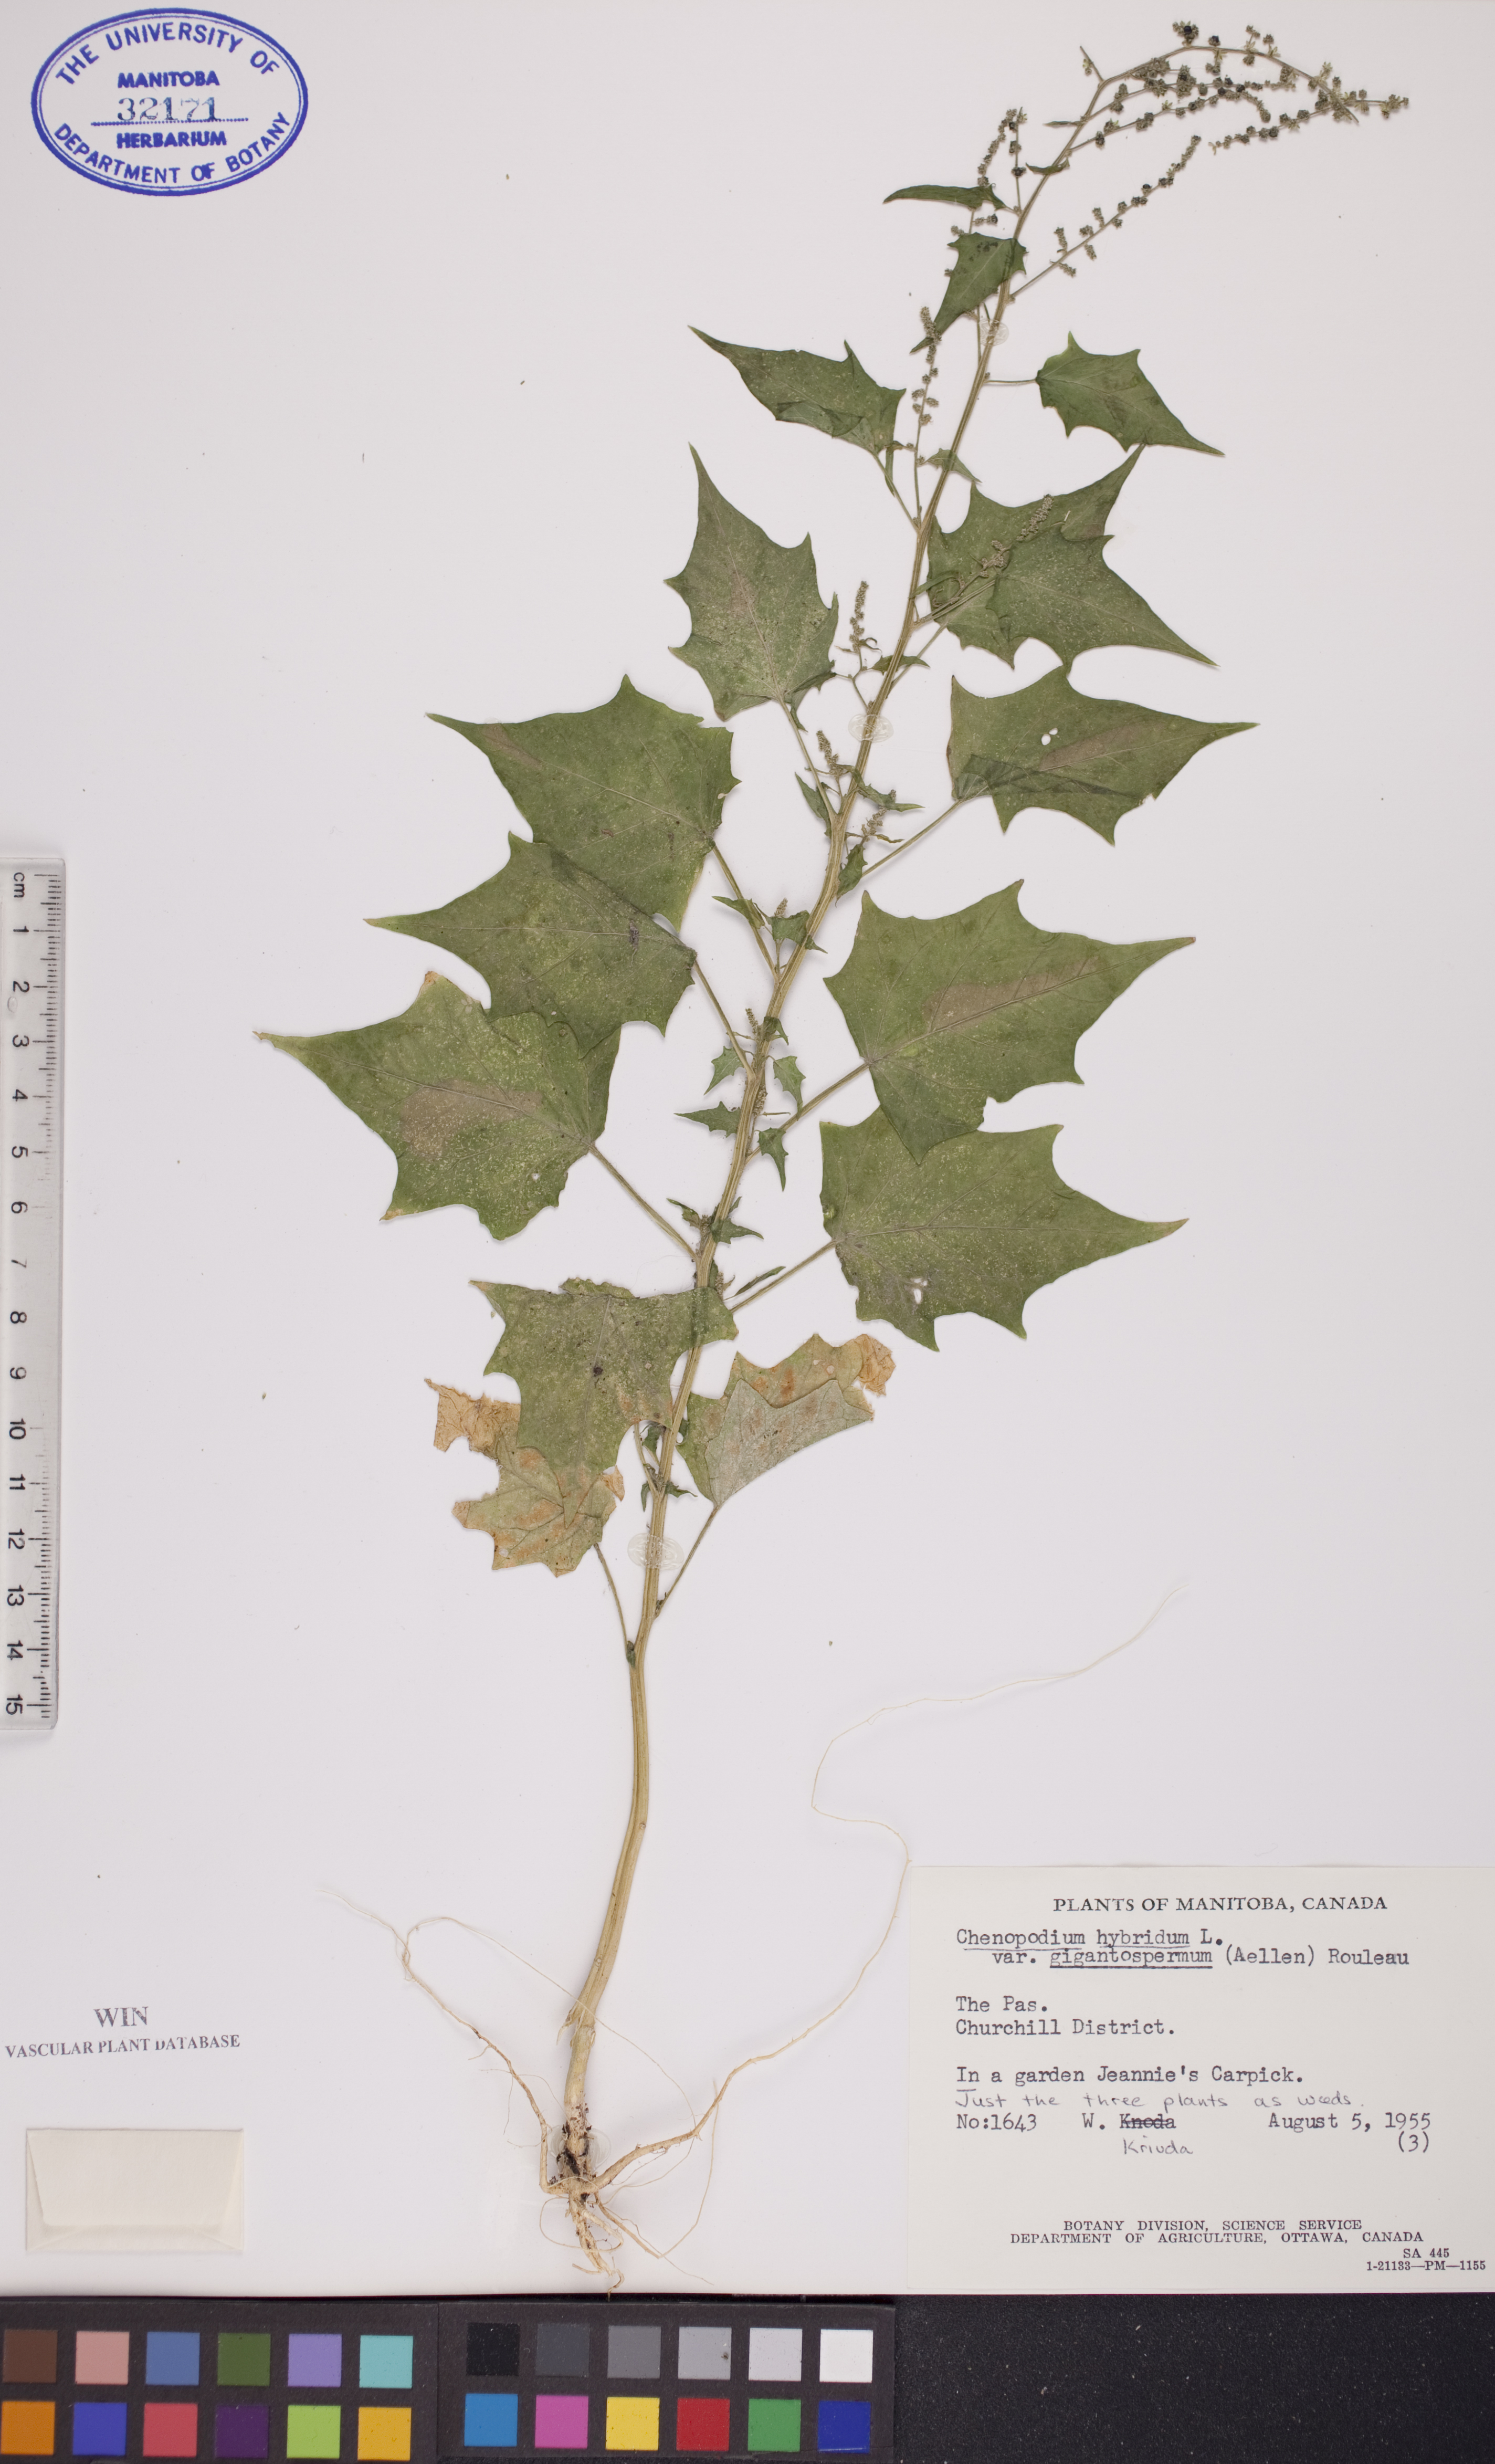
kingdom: Plantae
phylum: Tracheophyta
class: Magnoliopsida
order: Caryophyllales
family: Amaranthaceae
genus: Chenopodiastrum
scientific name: Chenopodiastrum simplex
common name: Large-seed goosefoot
